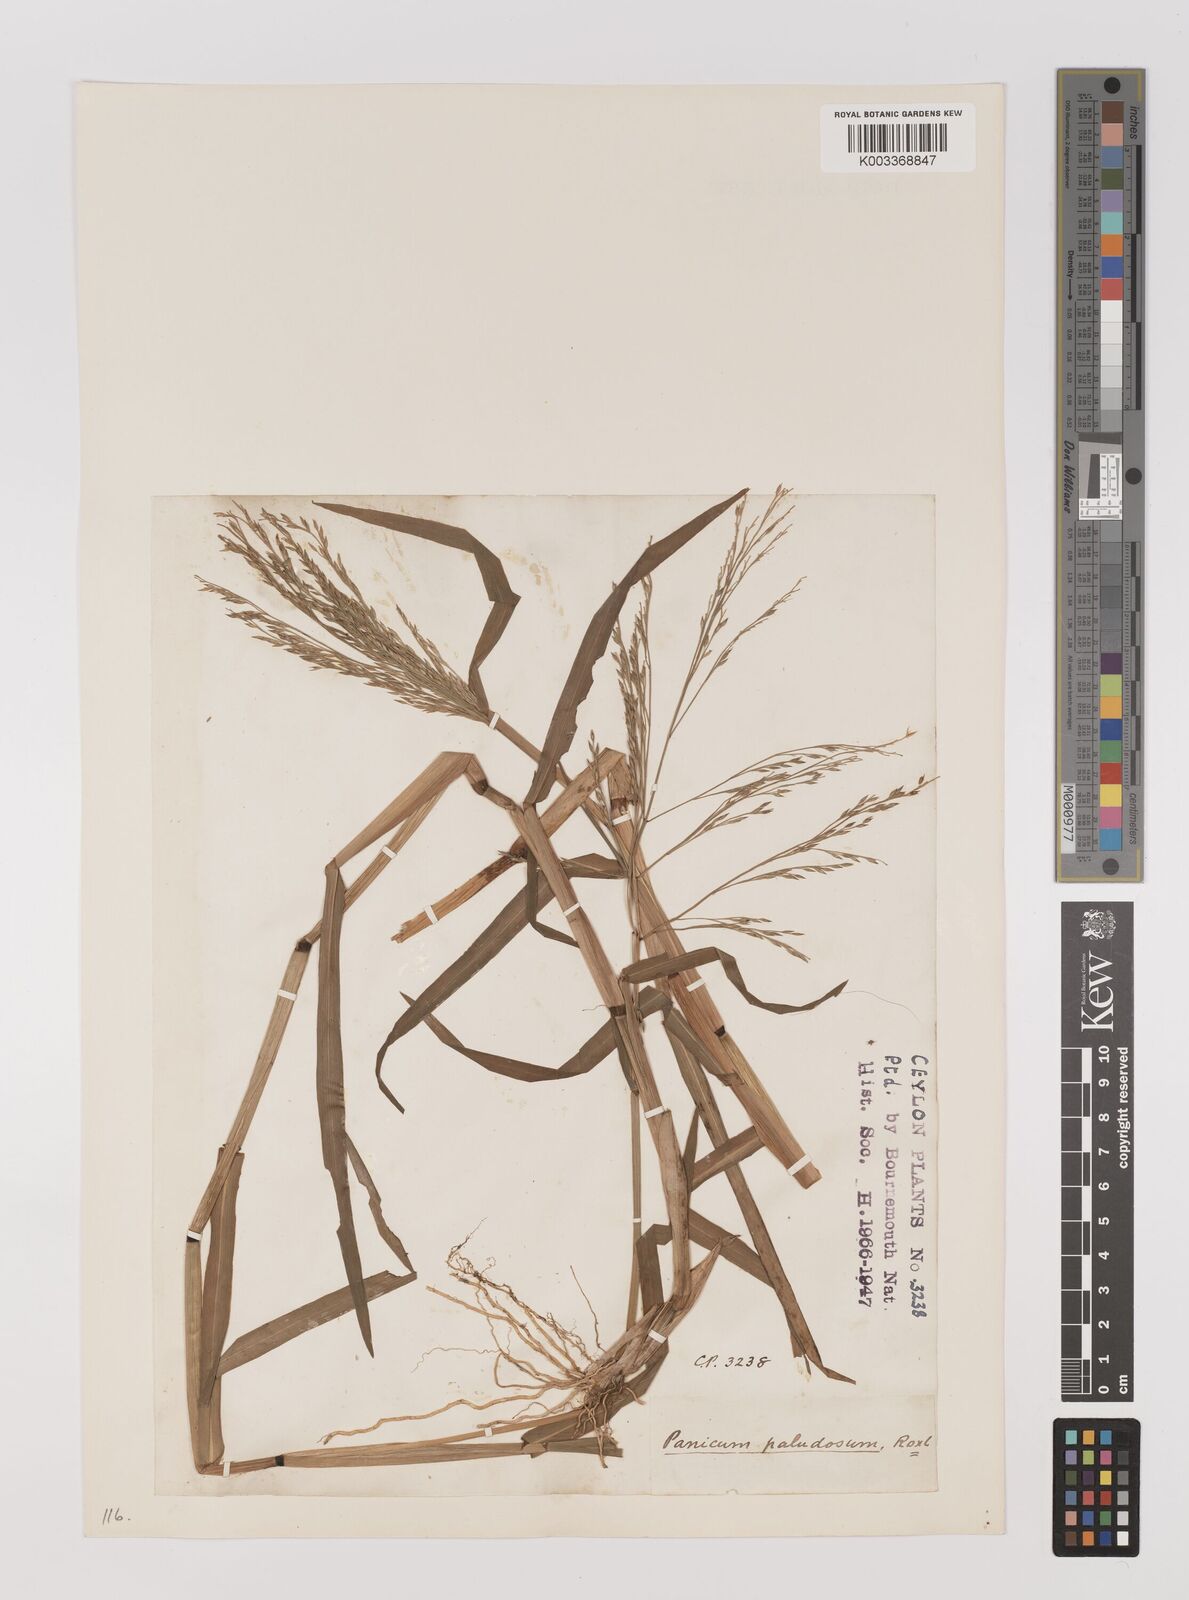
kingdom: Plantae
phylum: Tracheophyta
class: Liliopsida
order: Poales
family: Poaceae
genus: Louisiella
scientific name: Louisiella paludosa
